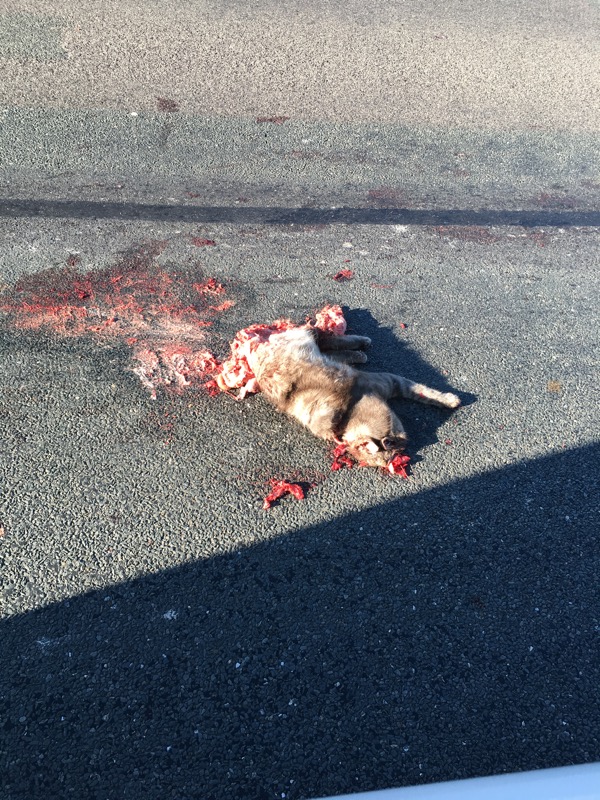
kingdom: Animalia
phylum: Chordata
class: Mammalia
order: Carnivora
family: Felidae
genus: Felis
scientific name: Felis catus
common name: Domestic cat
